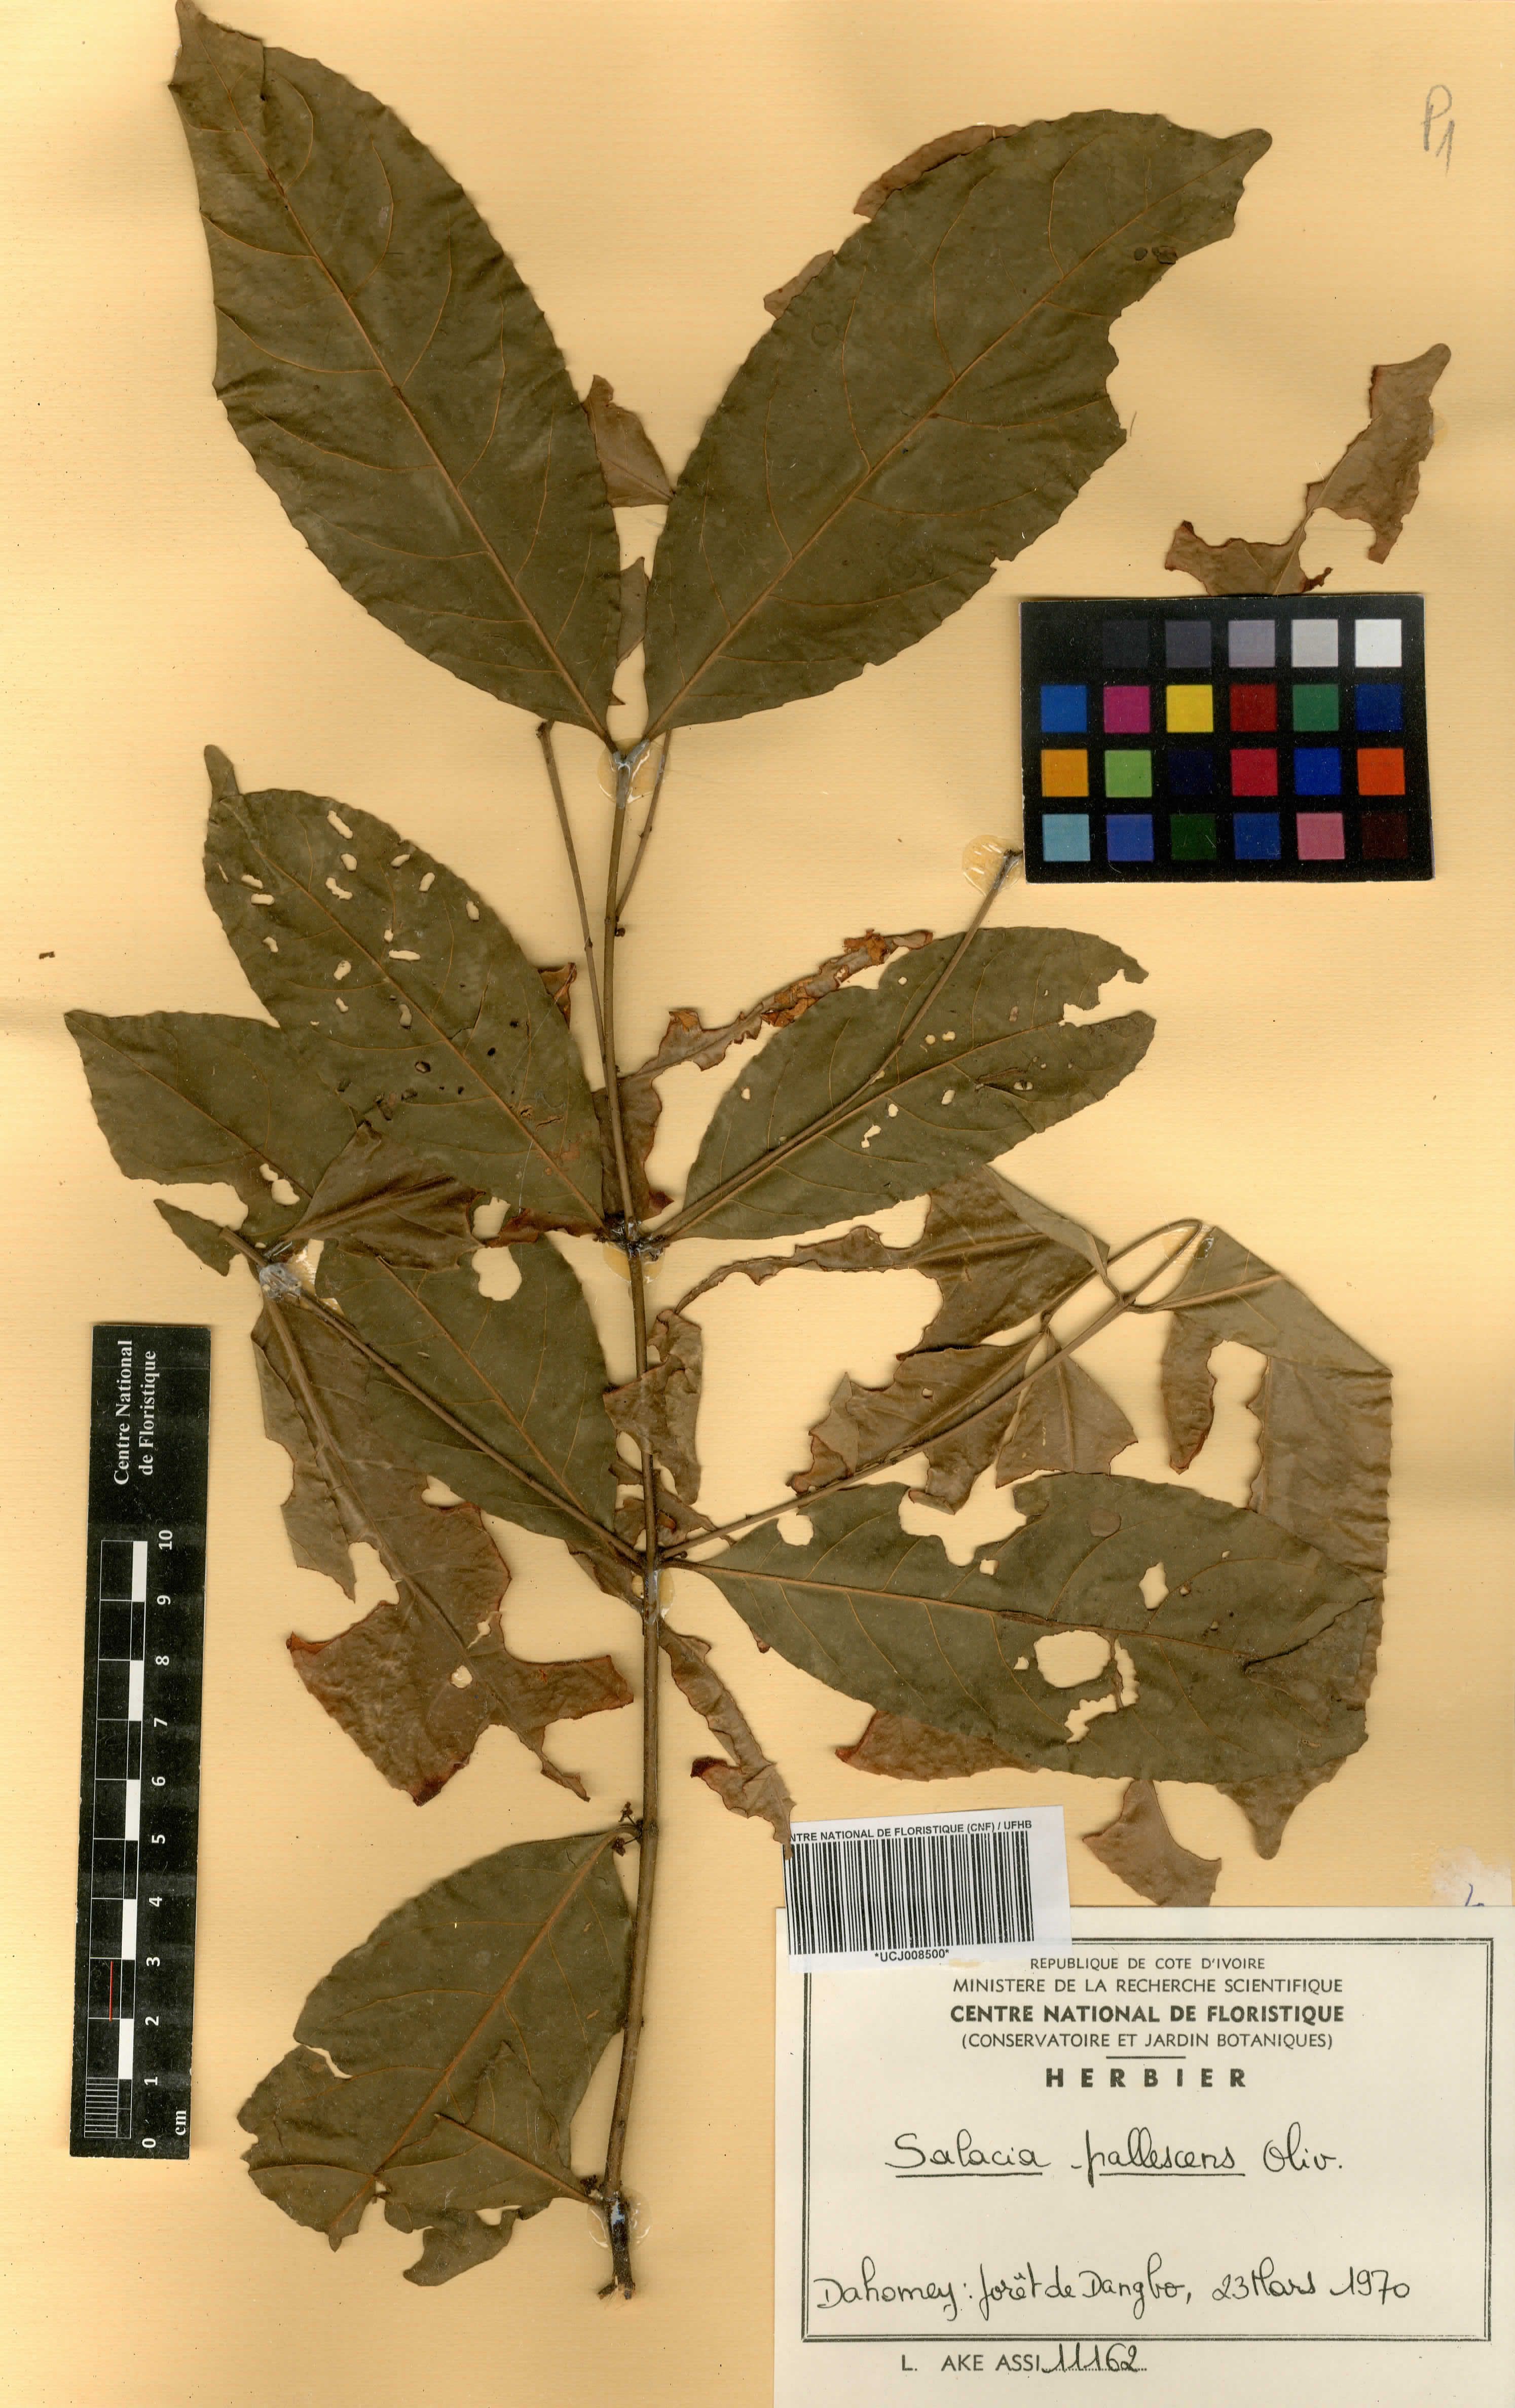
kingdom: Plantae
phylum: Tracheophyta
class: Magnoliopsida
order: Celastrales
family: Celastraceae
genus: Salacia
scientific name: Salacia pallescens
